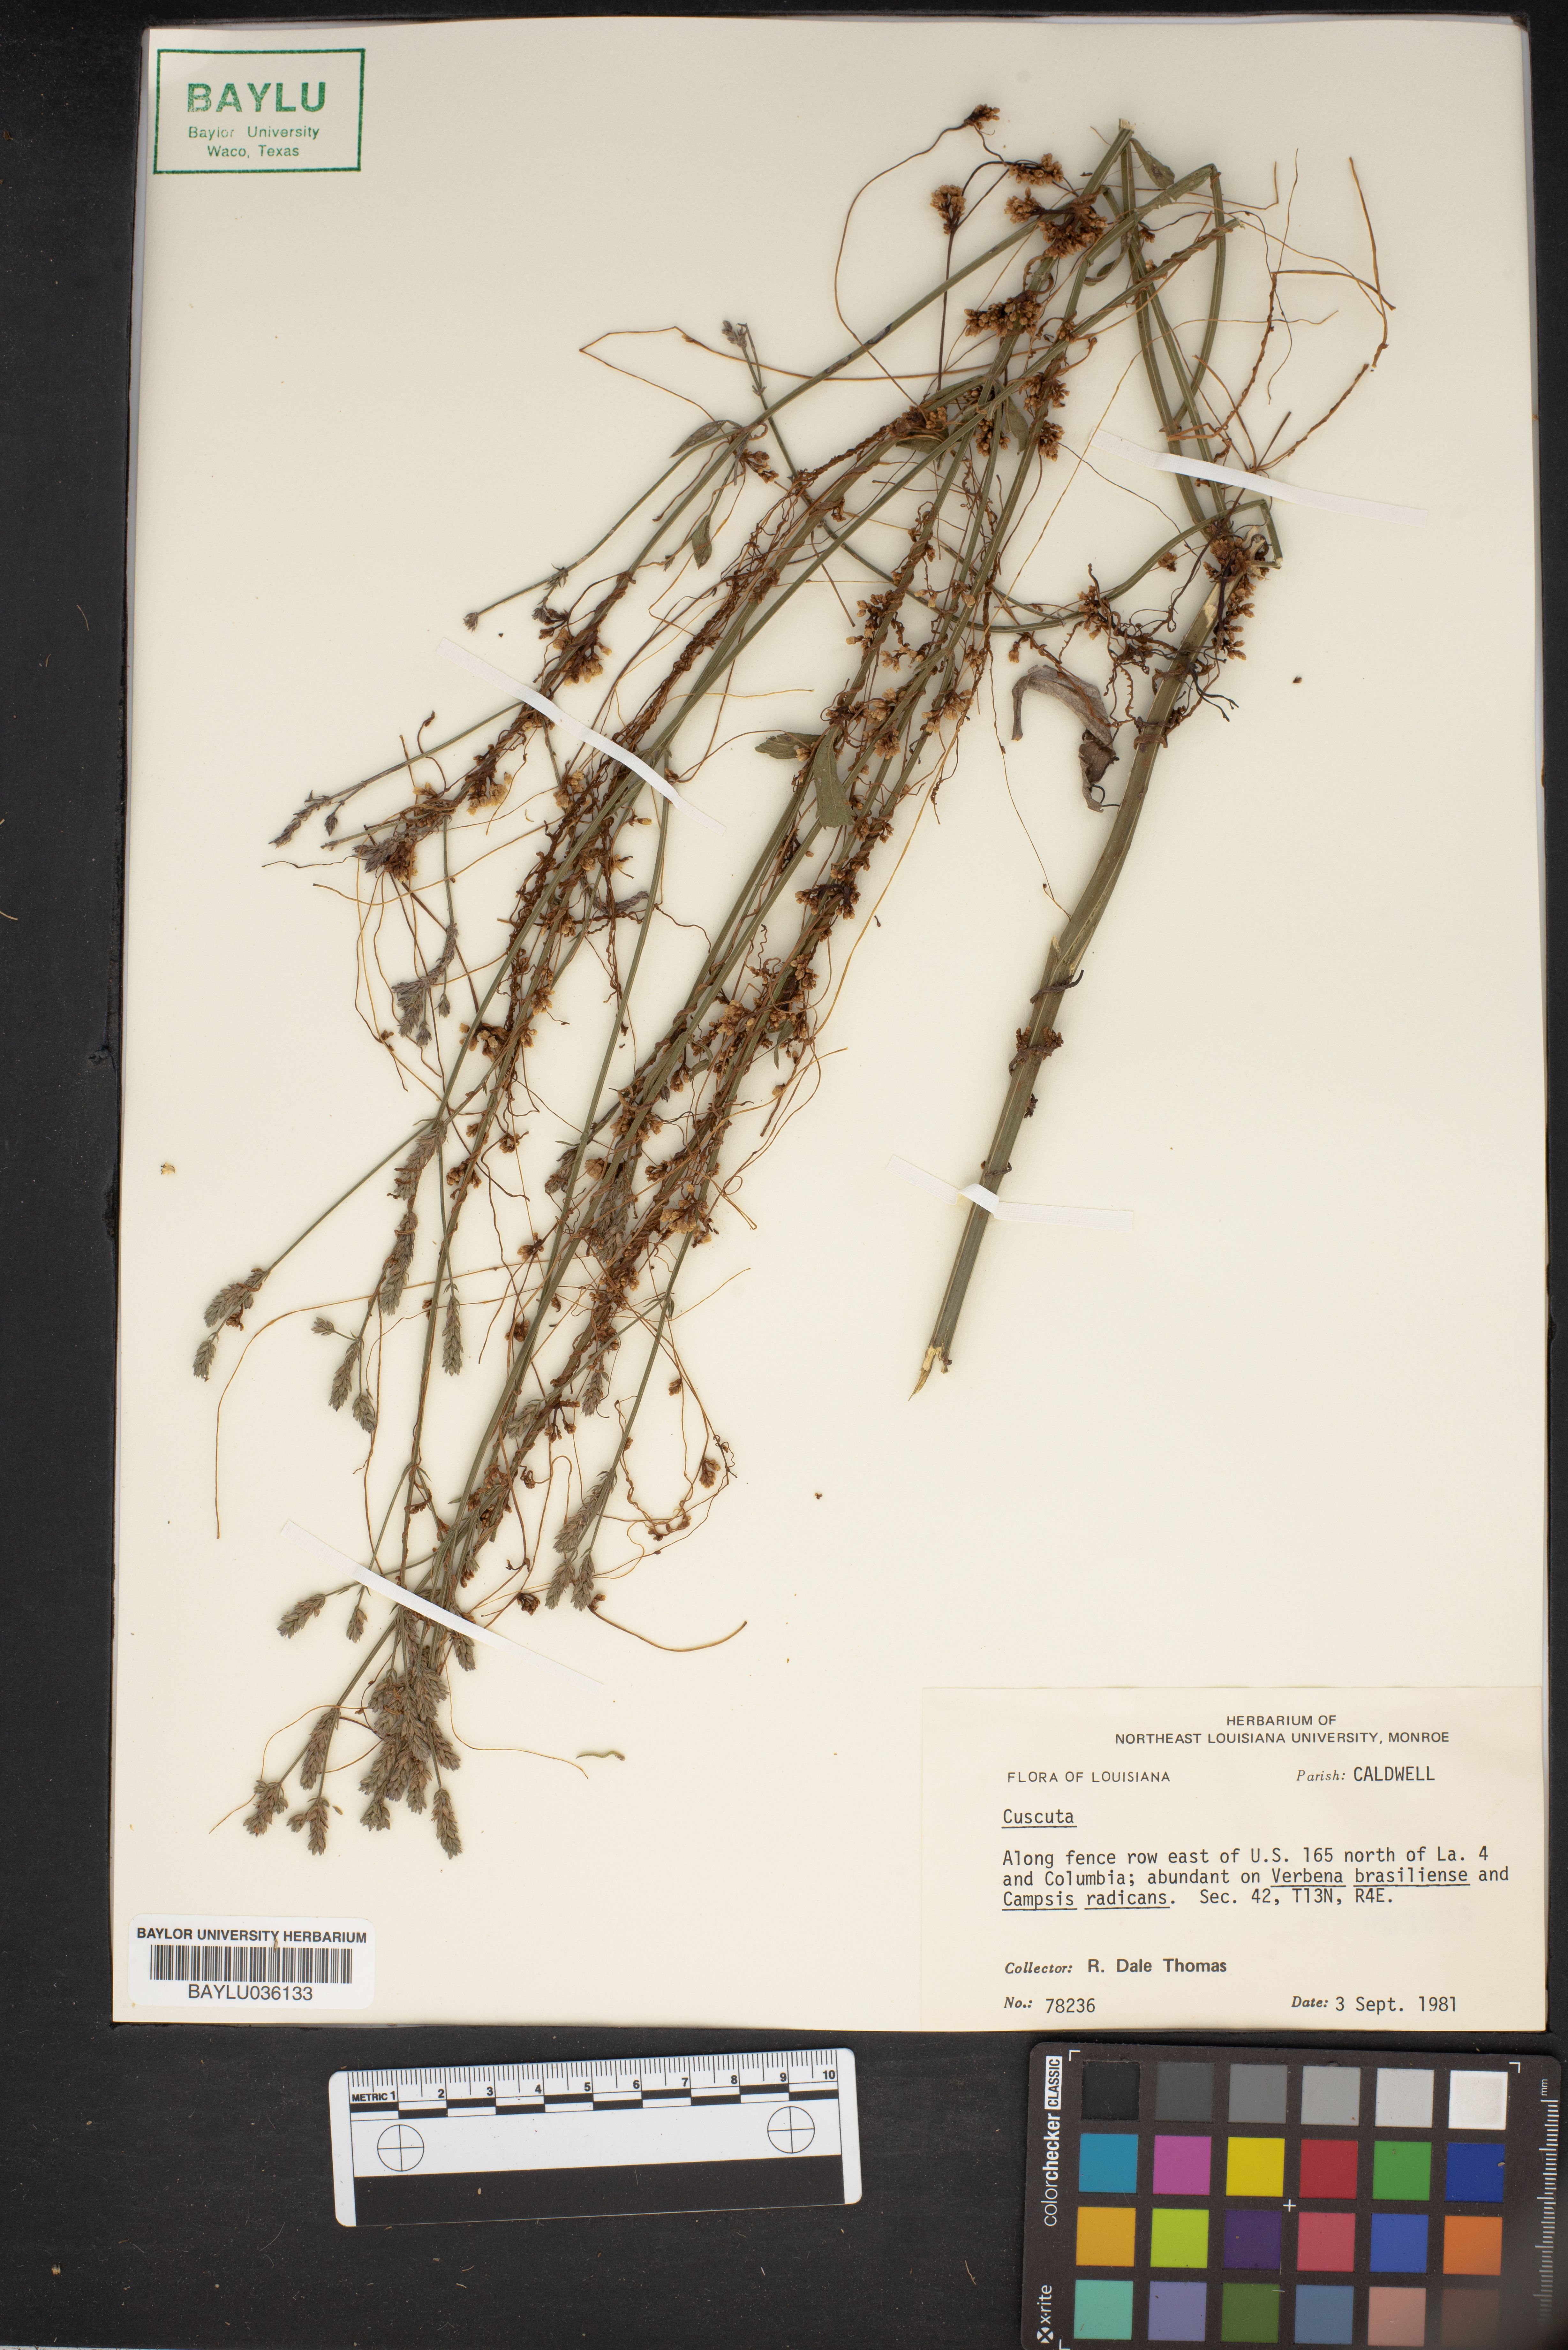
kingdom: Plantae
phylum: Tracheophyta
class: Magnoliopsida
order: Solanales
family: Convolvulaceae
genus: Cuscuta
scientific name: Cuscuta
